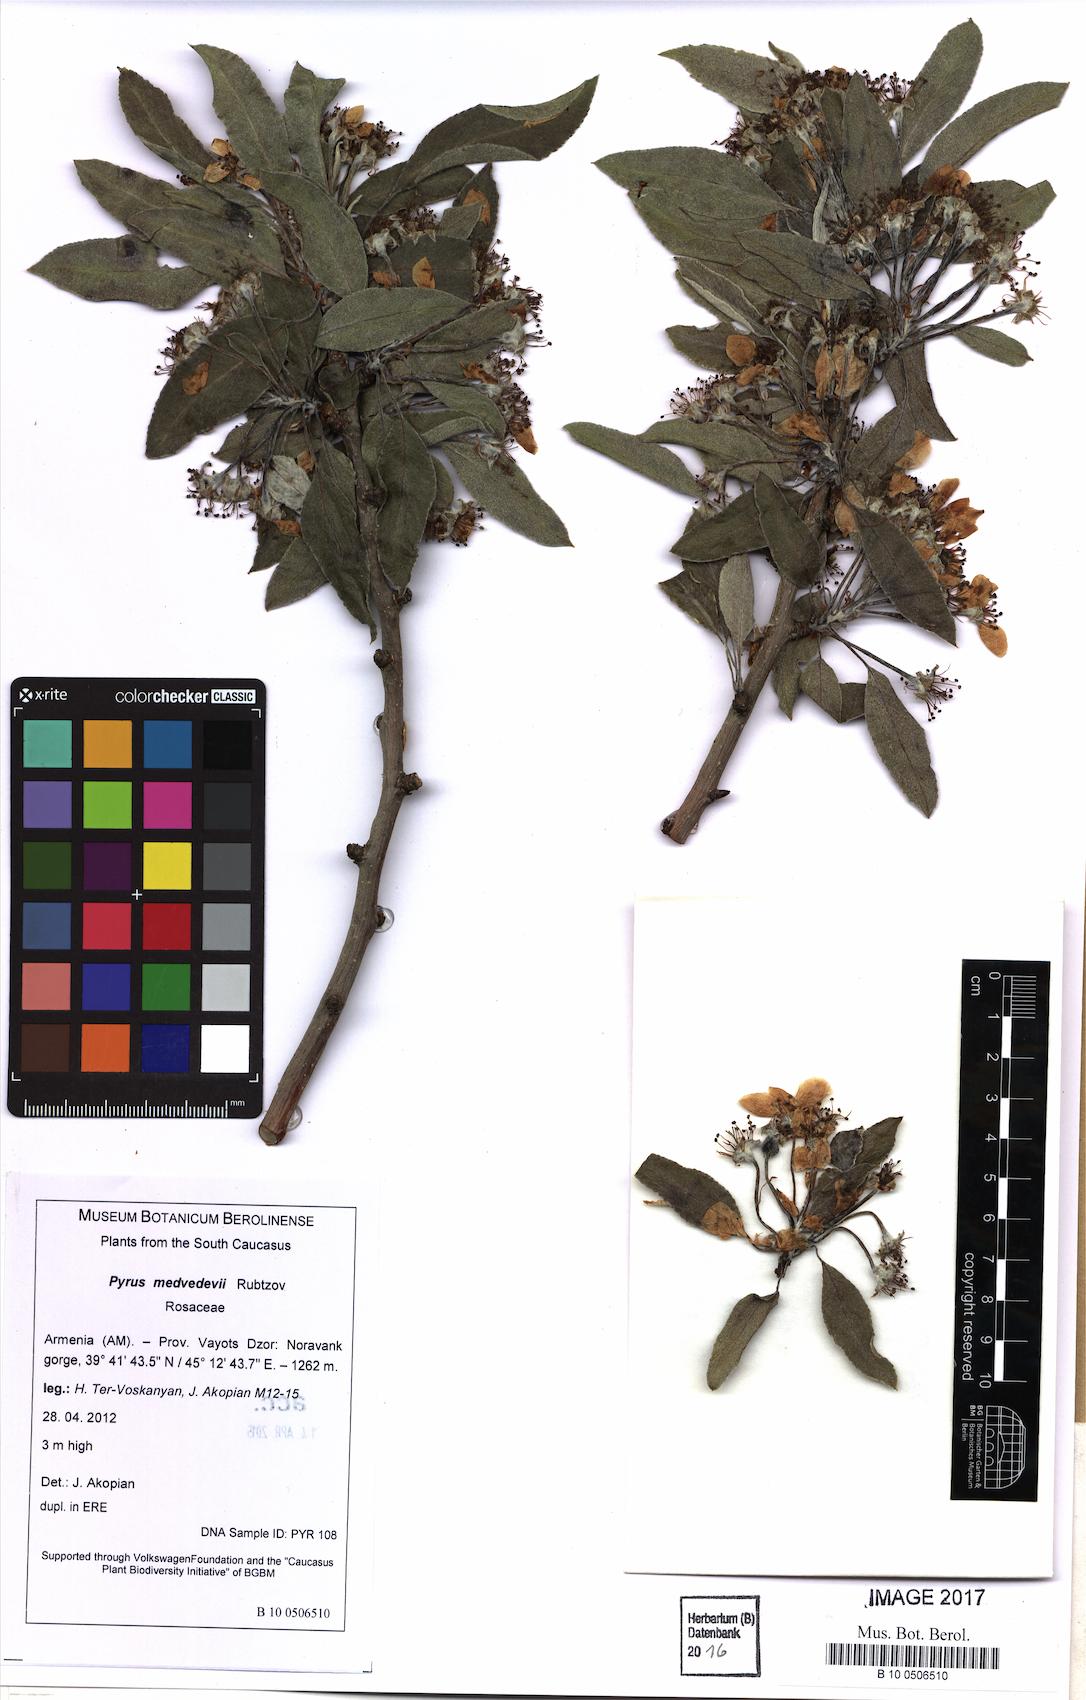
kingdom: Plantae
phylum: Tracheophyta
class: Magnoliopsida
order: Rosales
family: Rosaceae
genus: Pyrus
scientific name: Pyrus medvedevii
